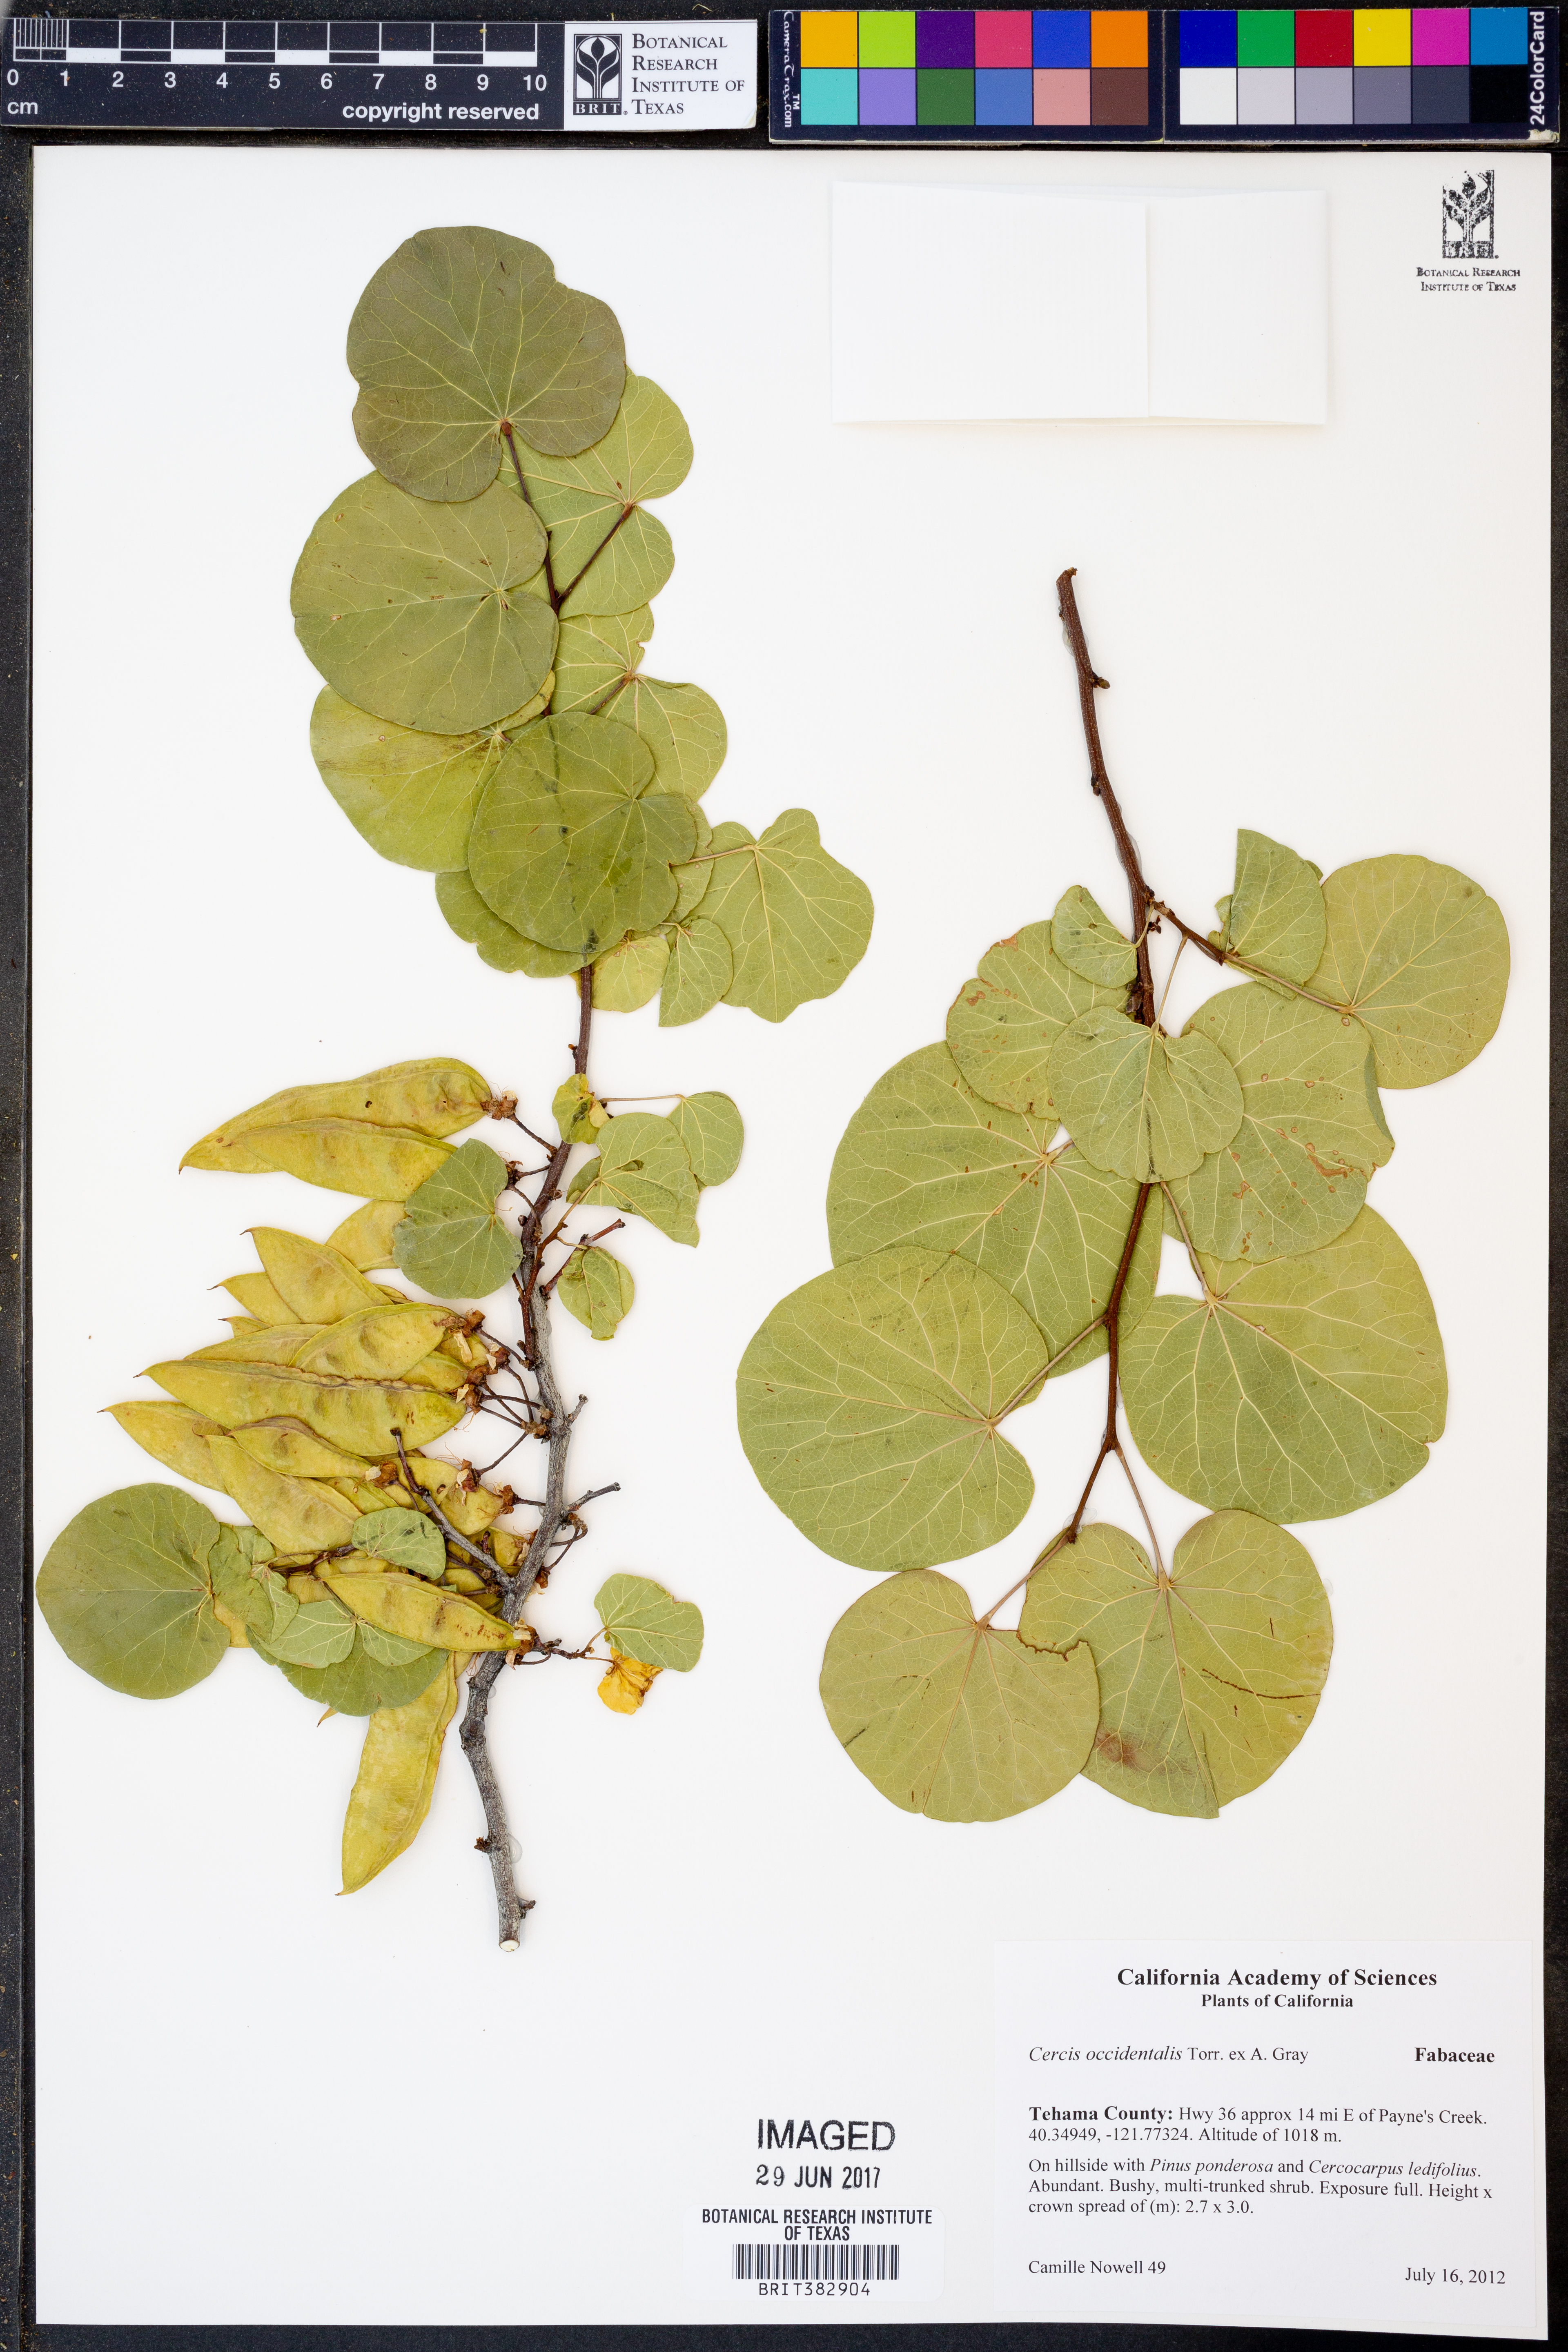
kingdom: Plantae
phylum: Tracheophyta
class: Magnoliopsida
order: Fabales
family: Fabaceae
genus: Cercis
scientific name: Cercis occidentalis
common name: California redbud
